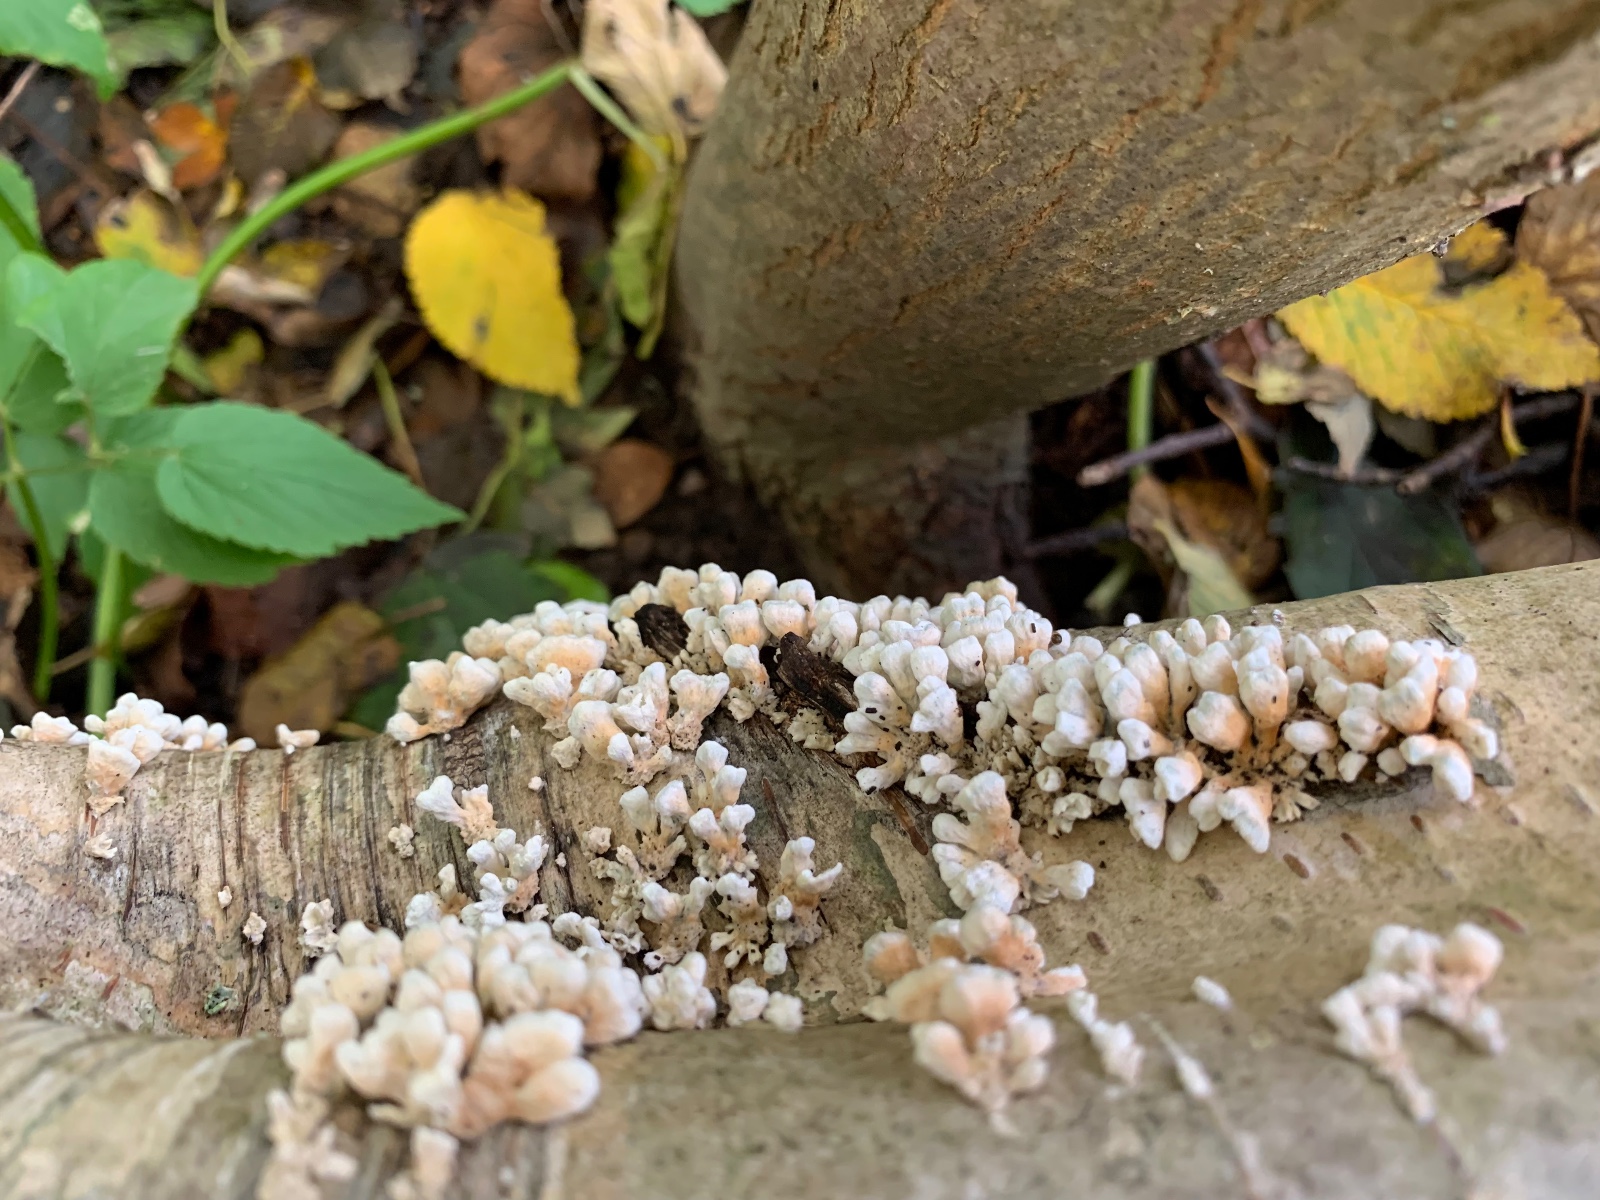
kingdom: Fungi
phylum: Basidiomycota
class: Agaricomycetes
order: Amylocorticiales
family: Amylocorticiaceae
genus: Plicaturopsis
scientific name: Plicaturopsis crispa
